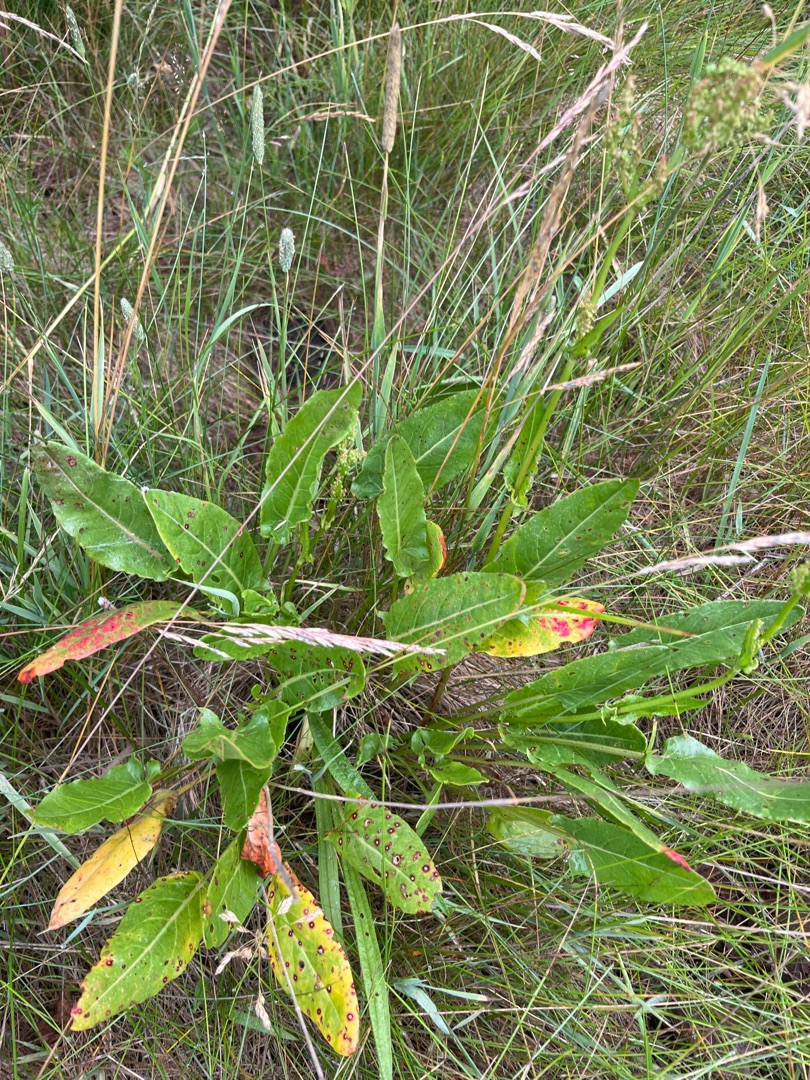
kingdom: Plantae
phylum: Tracheophyta
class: Magnoliopsida
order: Caryophyllales
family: Polygonaceae
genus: Rumex
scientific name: Rumex thyrsiflorus
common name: Dusk-syre
